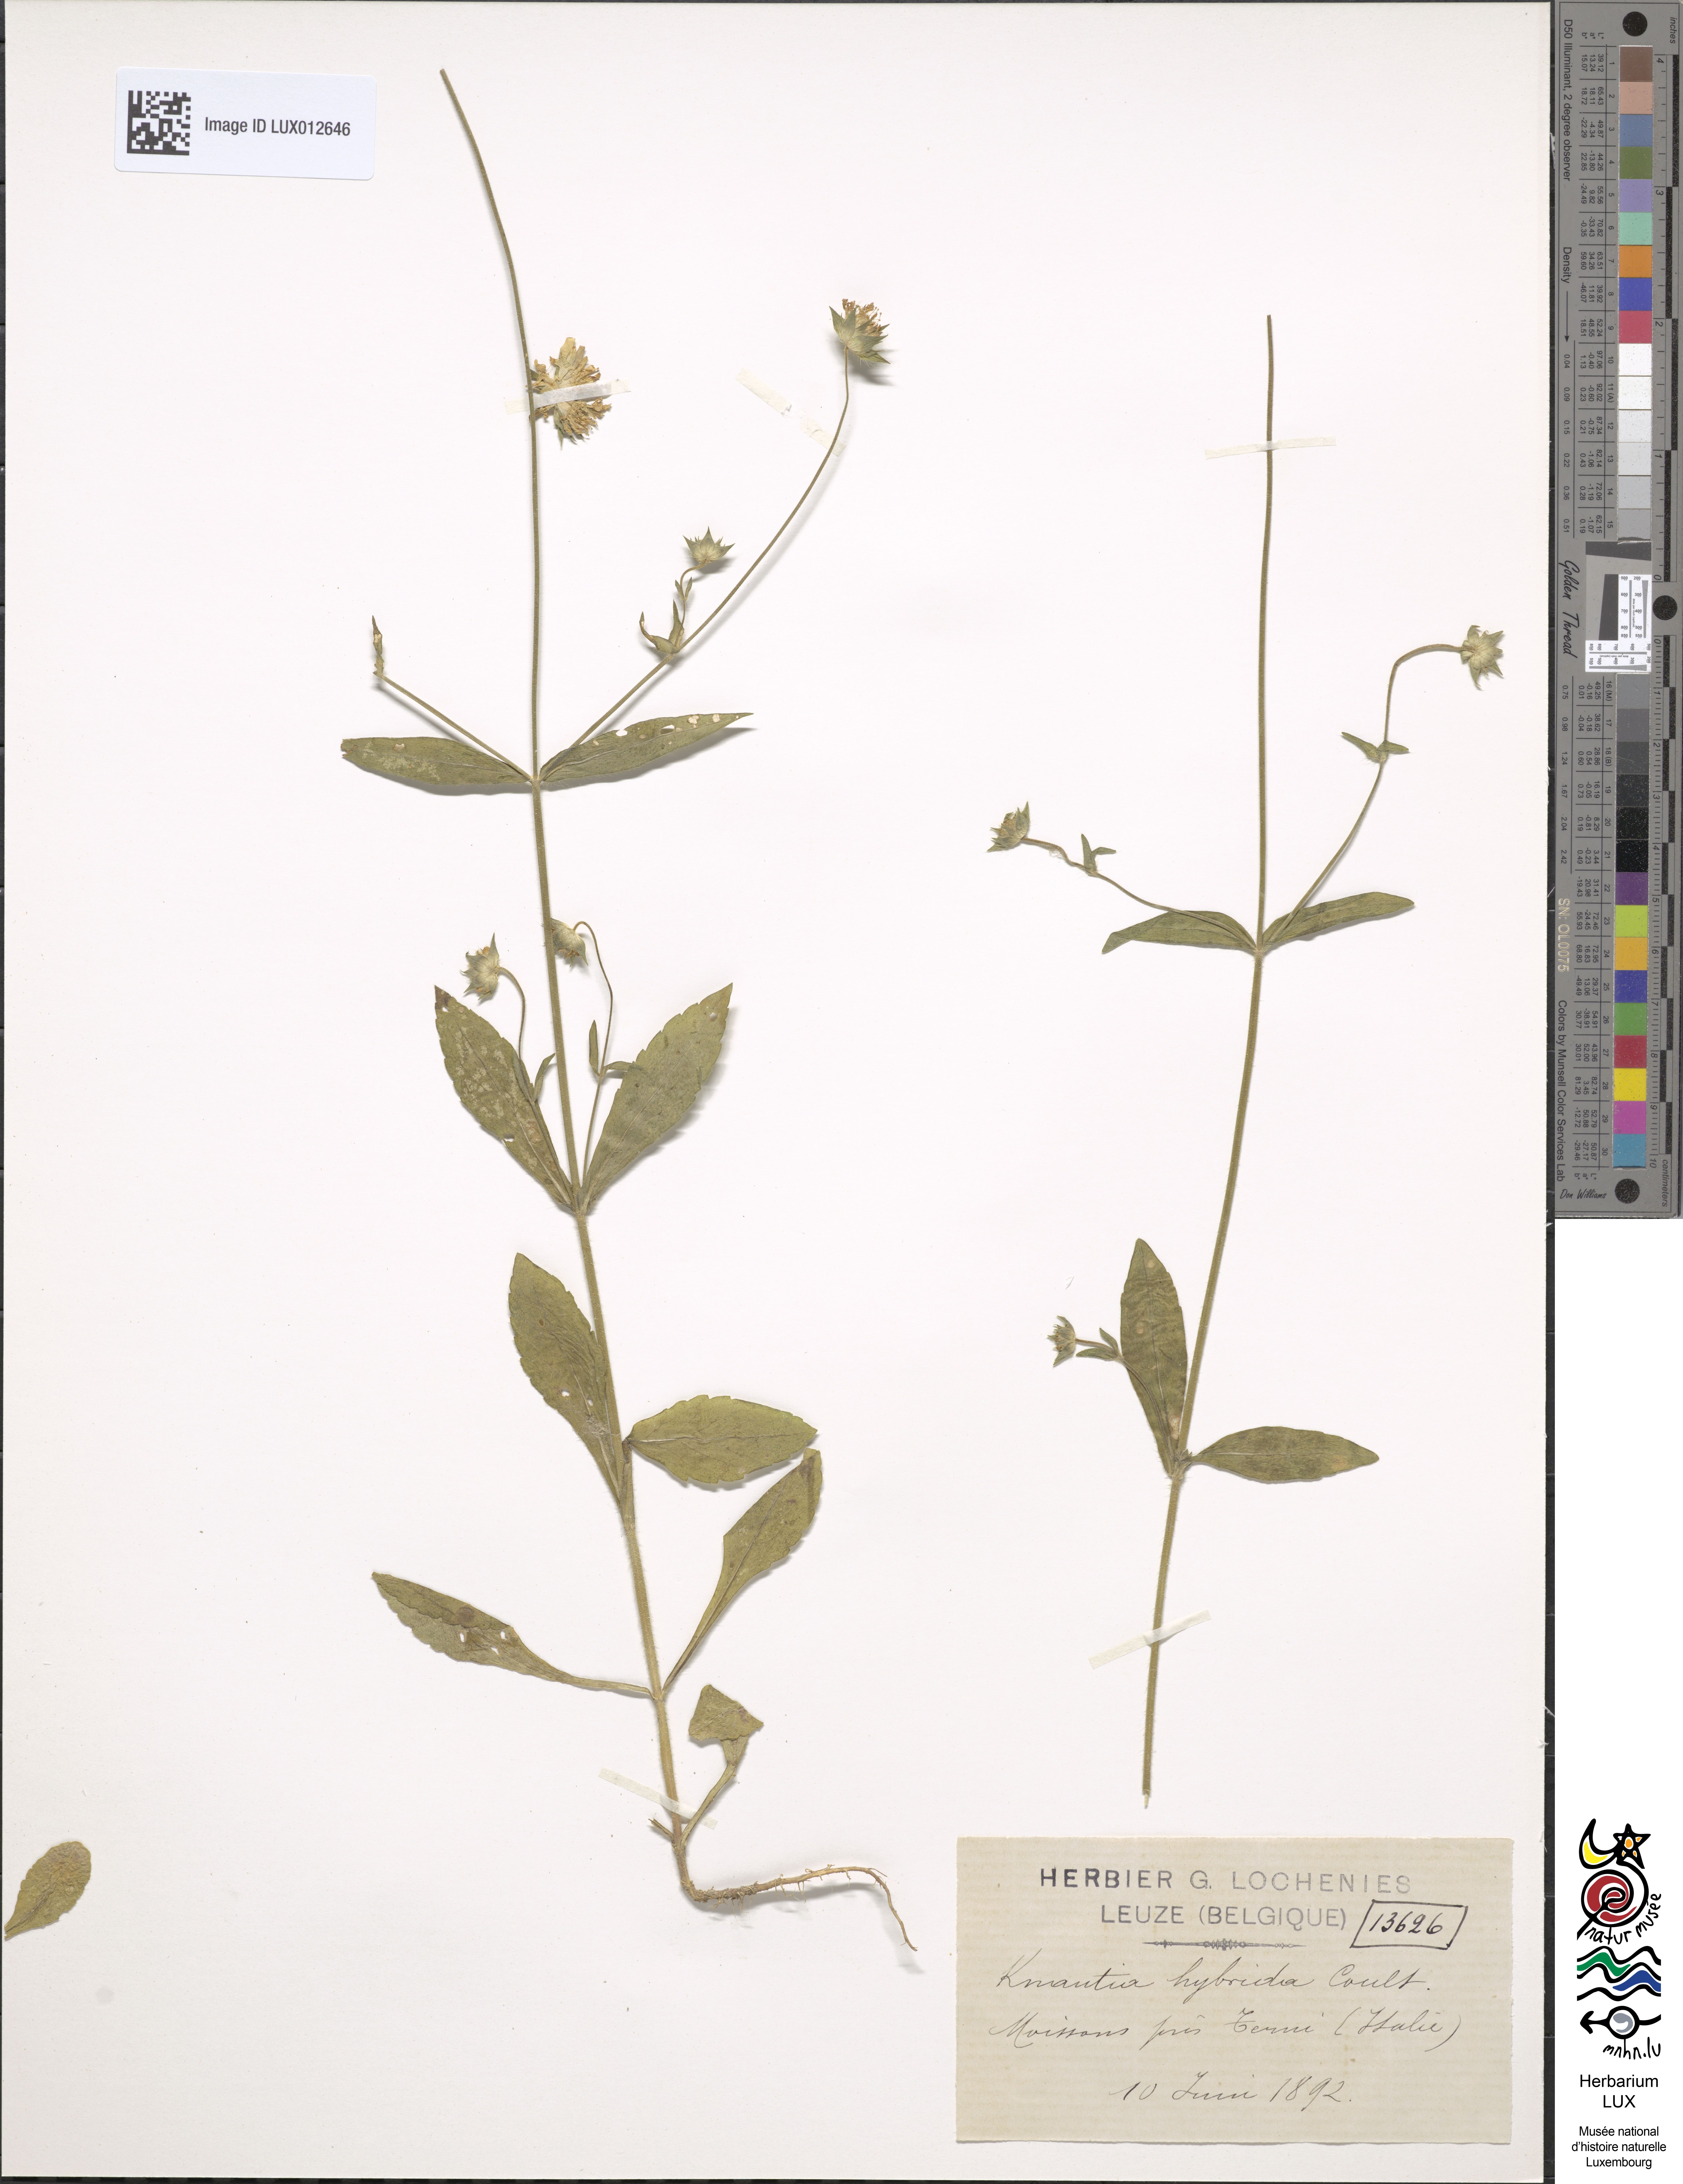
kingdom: Plantae
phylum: Tracheophyta
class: Magnoliopsida
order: Dipsacales
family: Caprifoliaceae
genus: Knautia
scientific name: Knautia integrifolia
